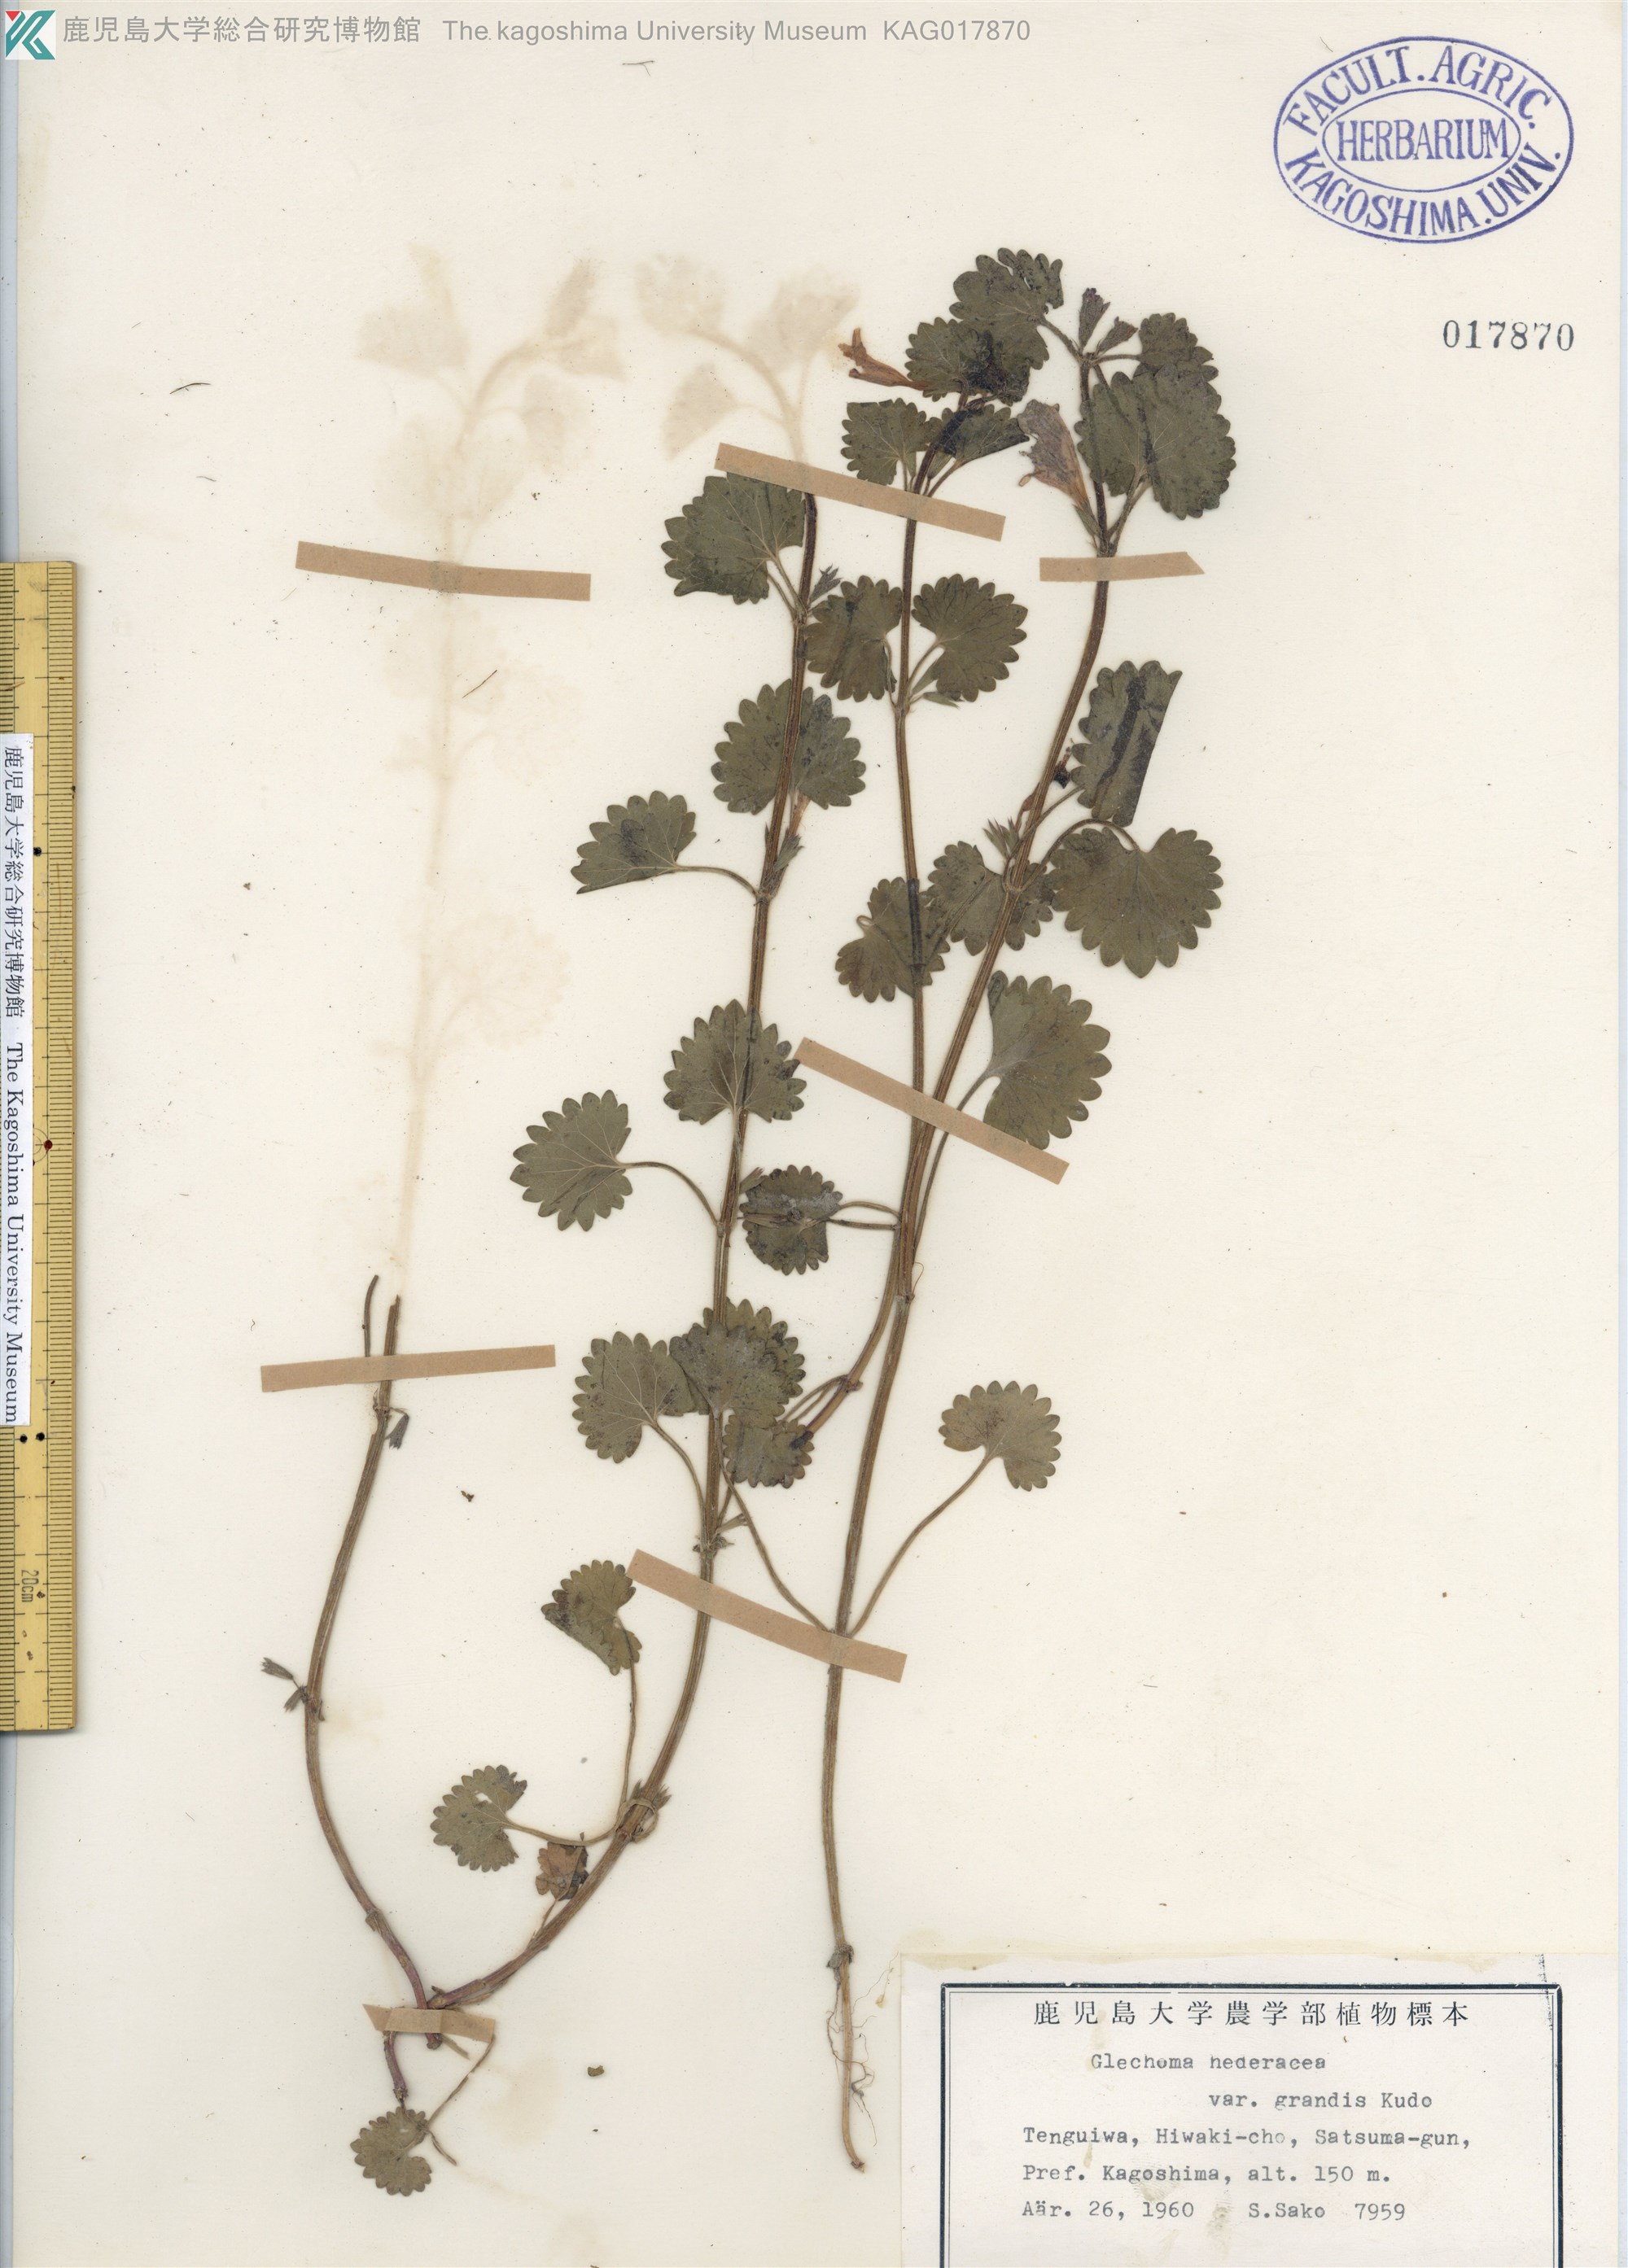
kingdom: Plantae
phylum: Tracheophyta
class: Magnoliopsida
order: Lamiales
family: Lamiaceae
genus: Glechoma
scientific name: Glechoma grandis
